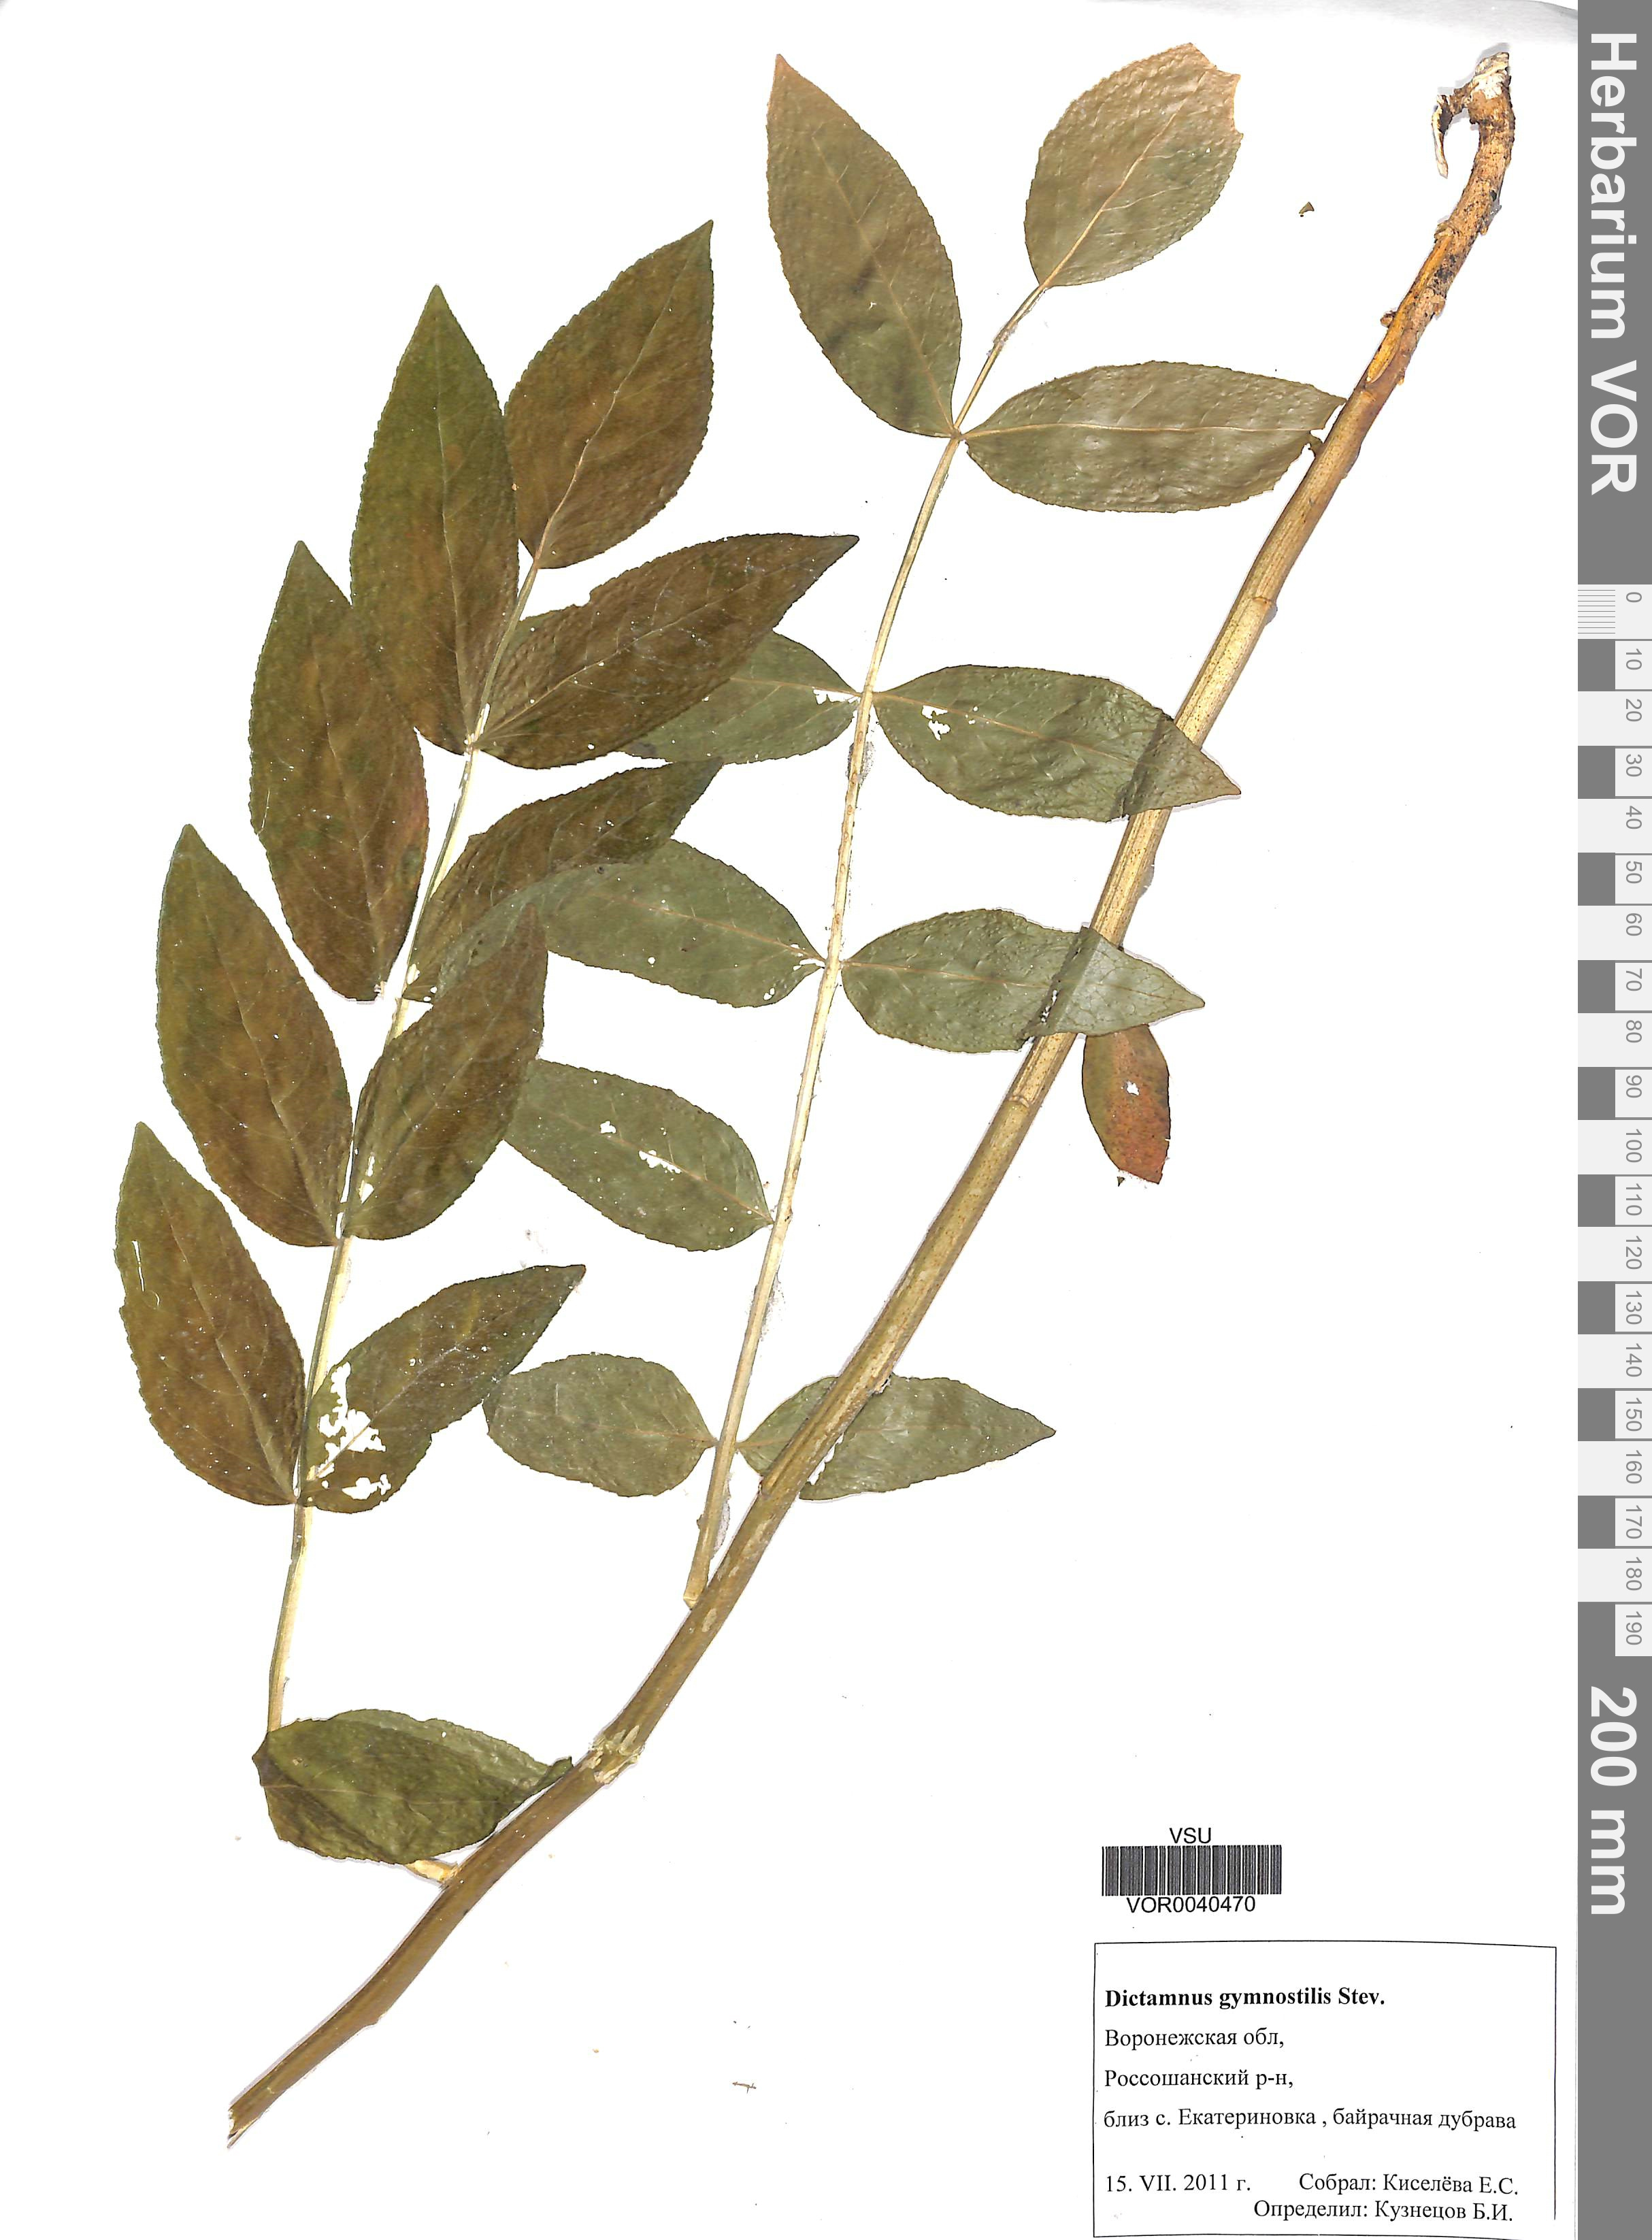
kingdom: Plantae
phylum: Tracheophyta
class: Magnoliopsida
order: Sapindales
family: Rutaceae
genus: Dictamnus
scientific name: Dictamnus albus
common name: Gasplant
